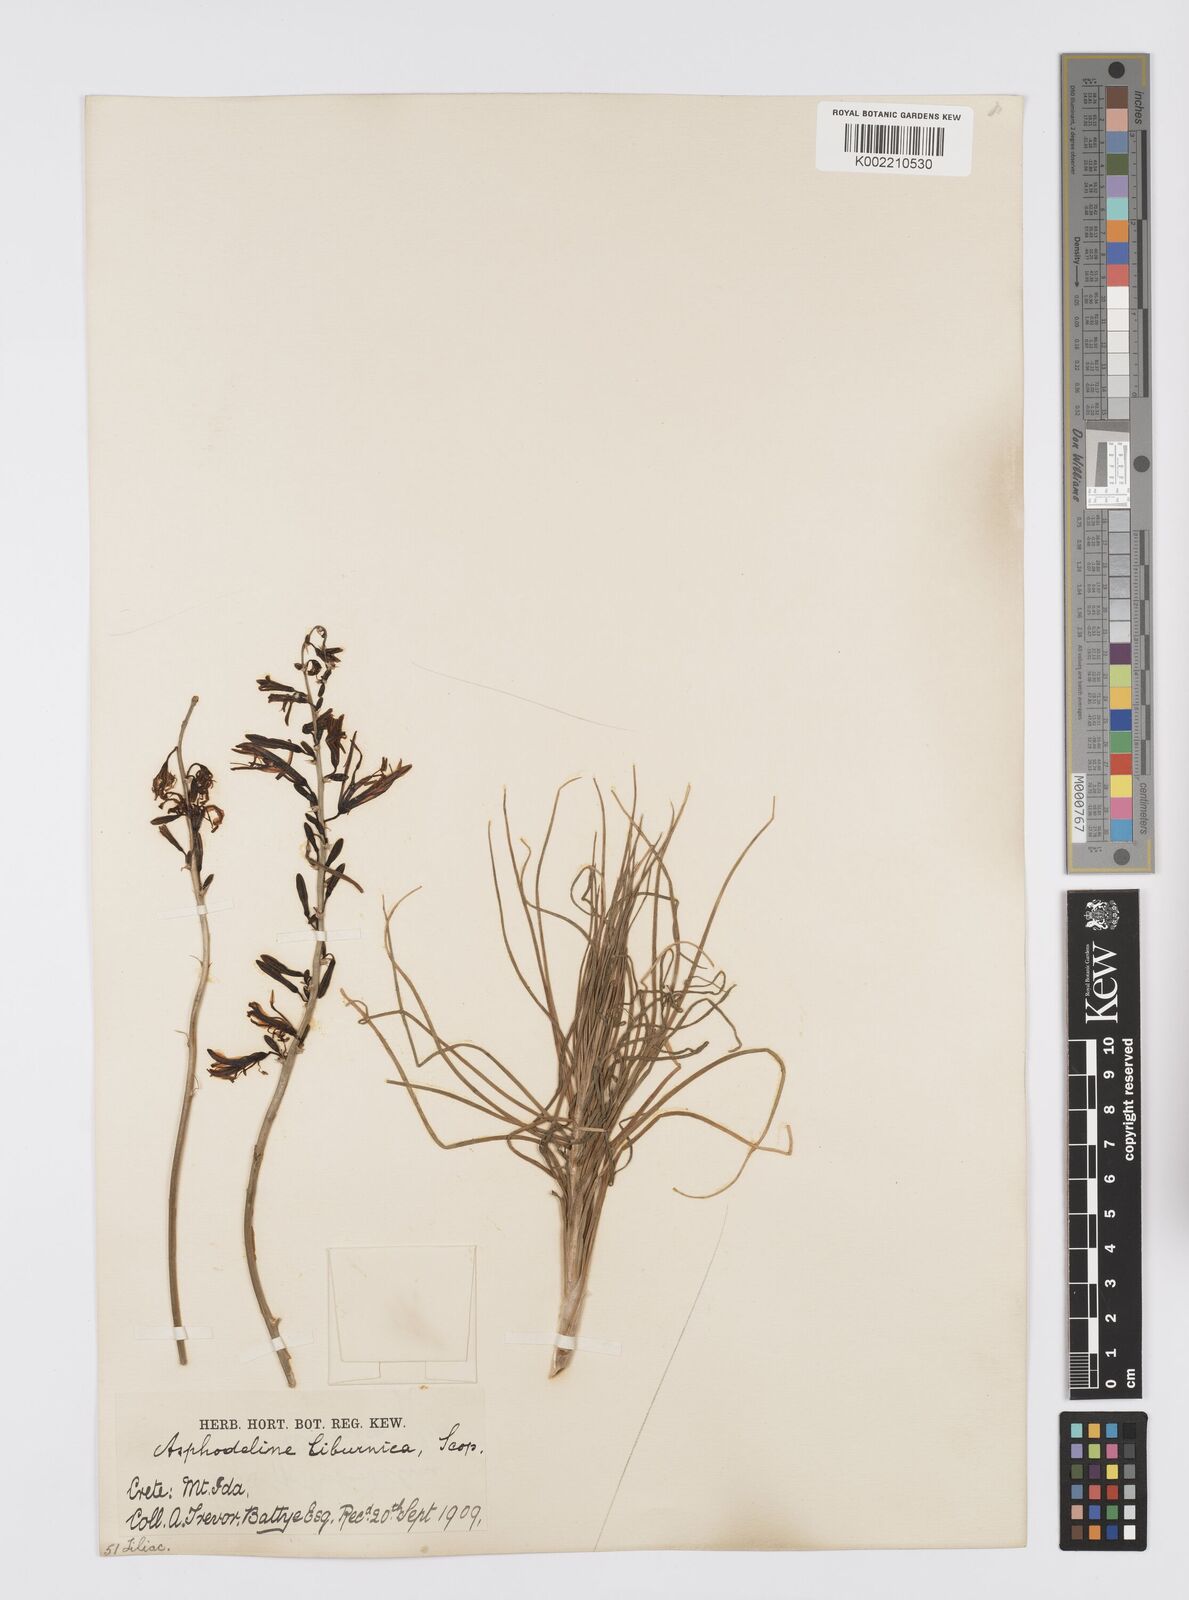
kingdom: Plantae
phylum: Tracheophyta
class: Liliopsida
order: Asparagales
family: Asphodelaceae
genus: Asphodeline
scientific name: Asphodeline liburnica
